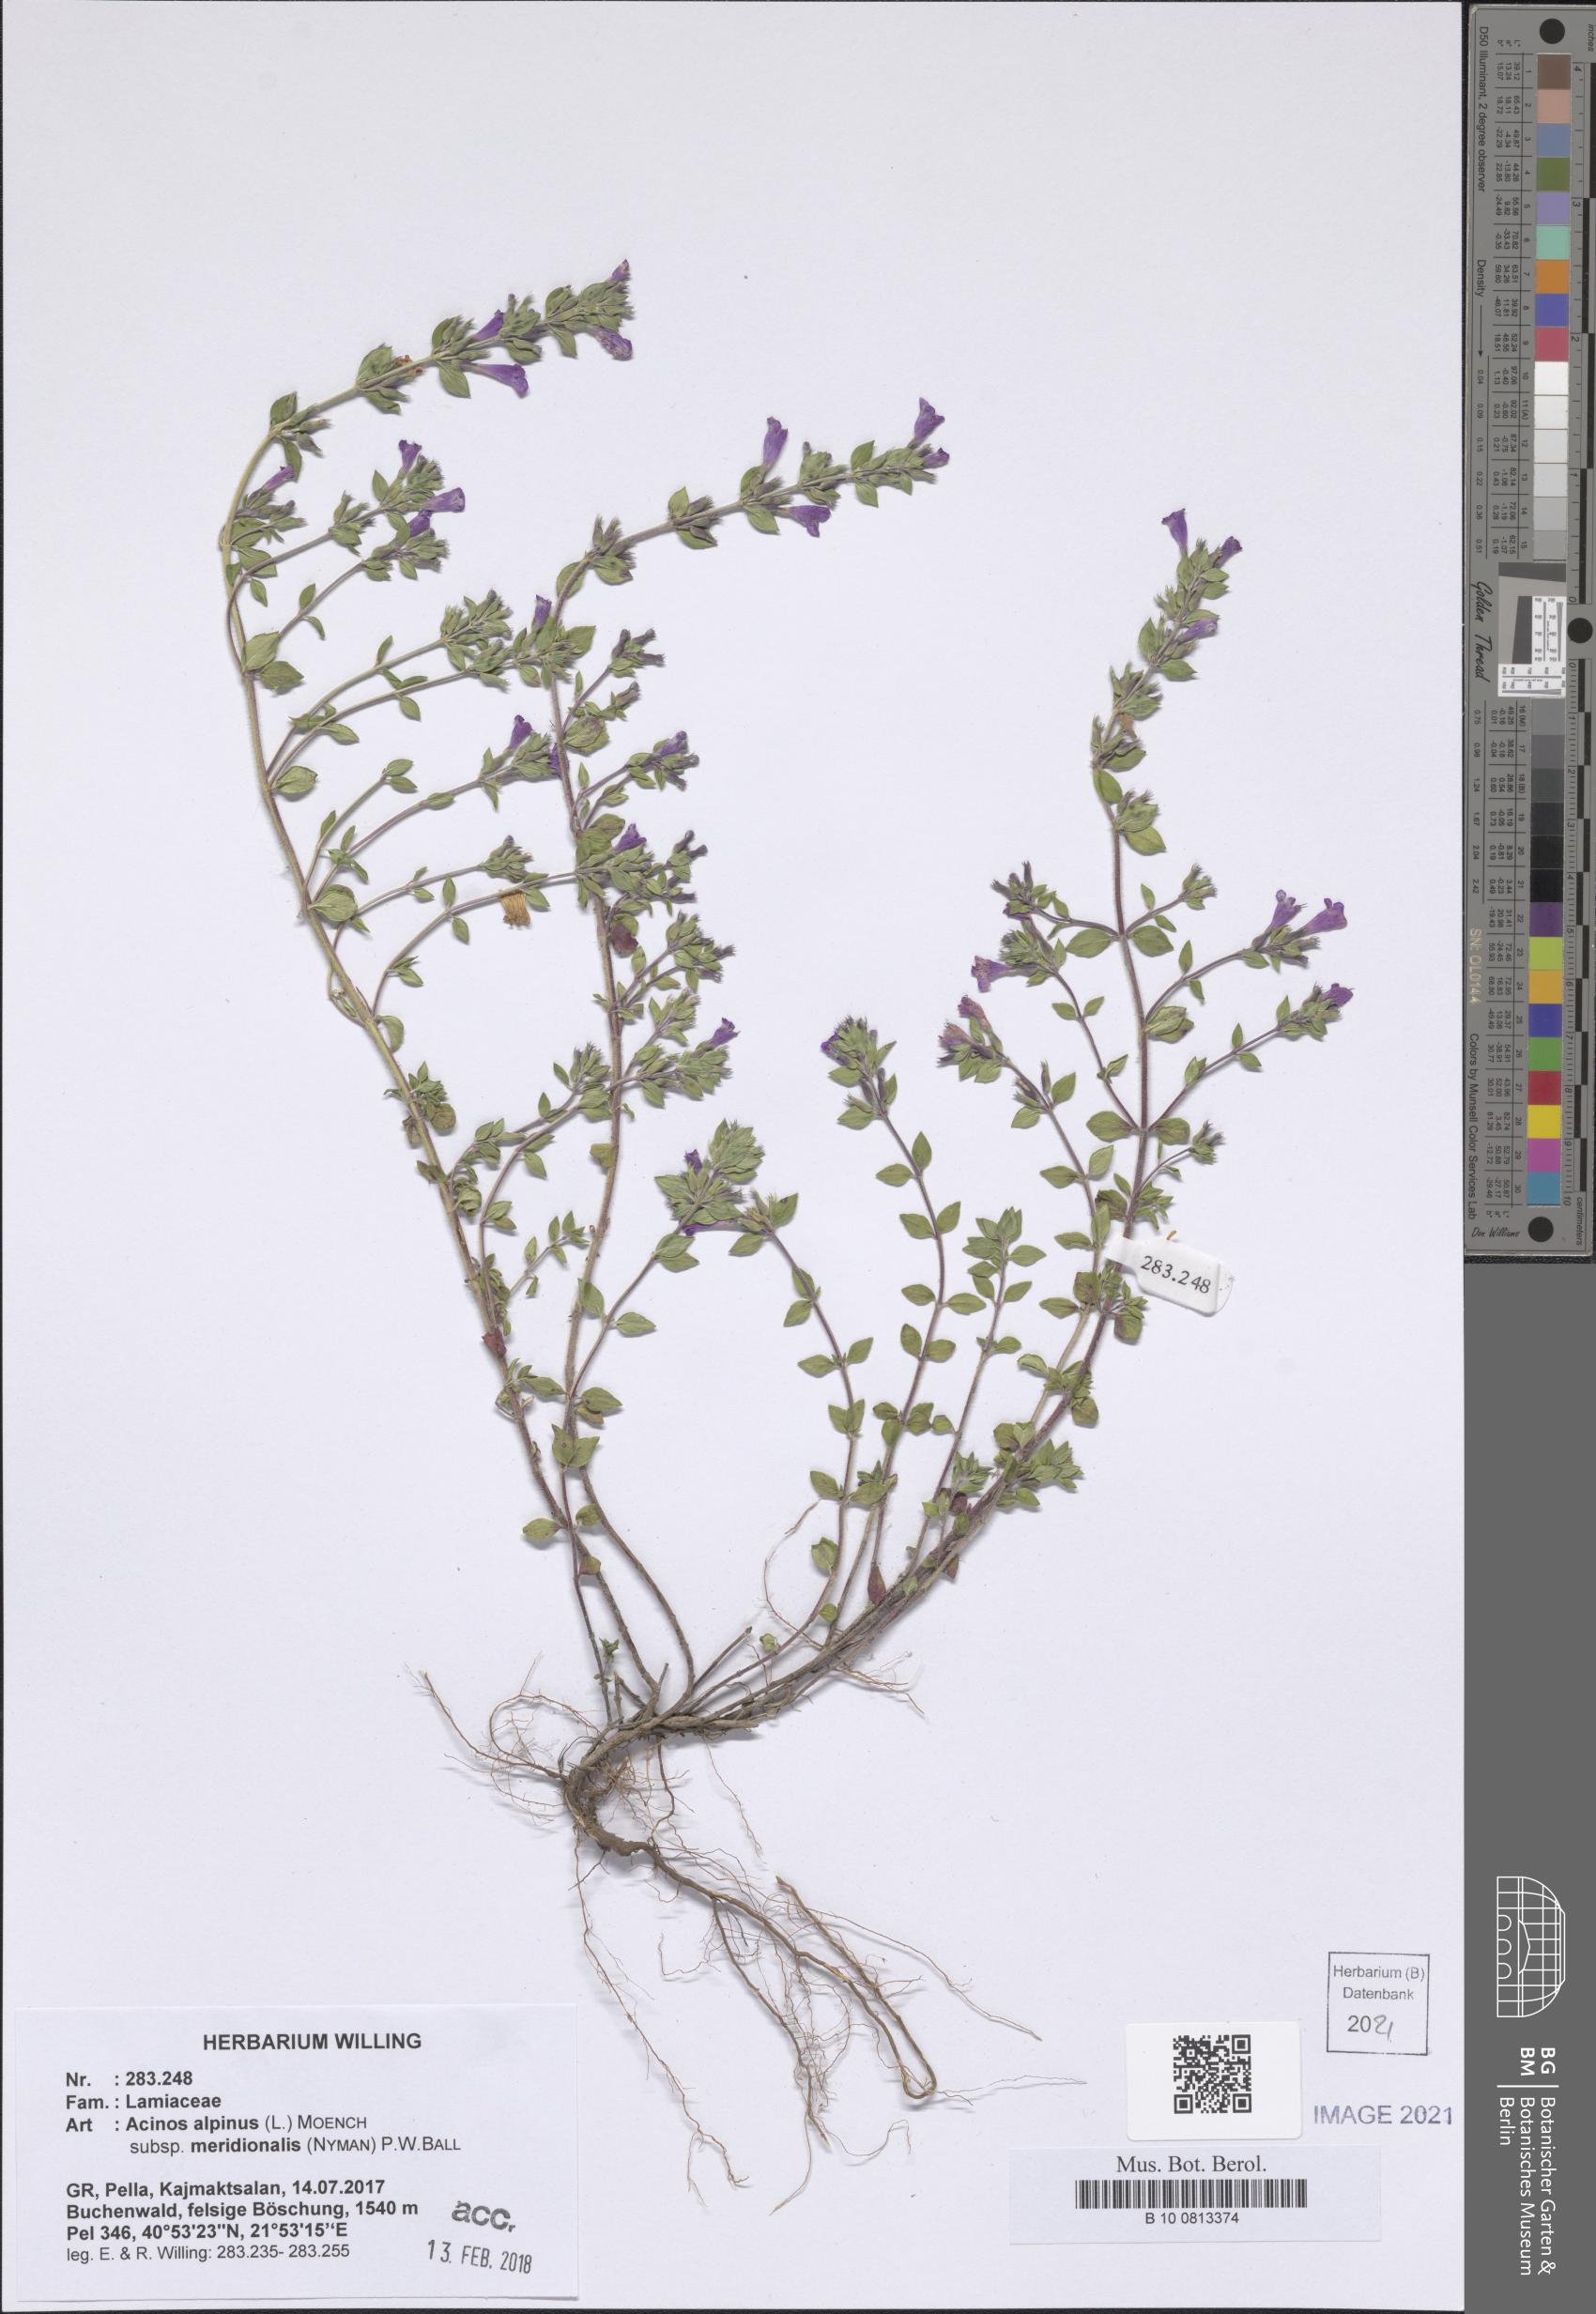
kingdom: Plantae
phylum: Tracheophyta
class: Magnoliopsida
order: Lamiales
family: Lamiaceae
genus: Clinopodium
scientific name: Clinopodium alpinum
